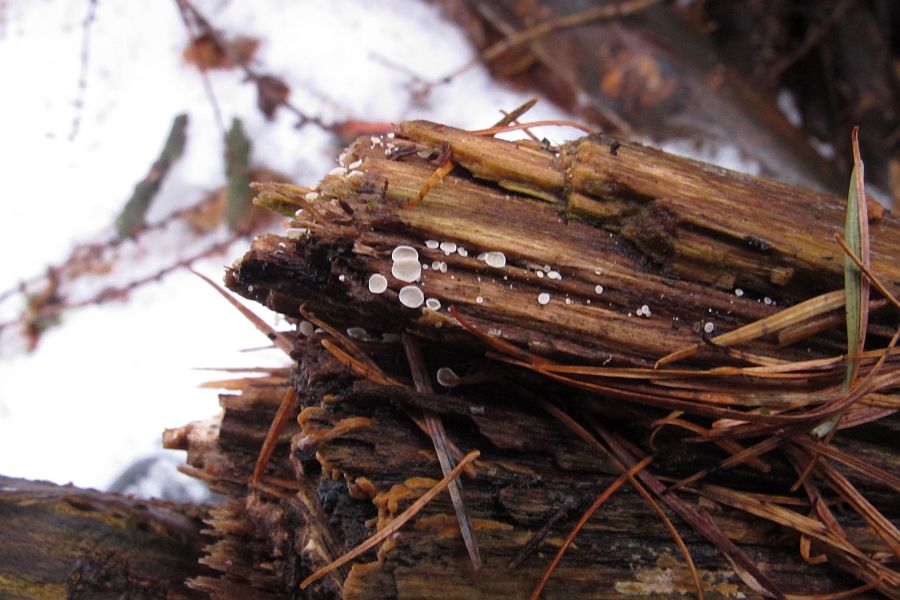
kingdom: Fungi
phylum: Ascomycota
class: Leotiomycetes
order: Helotiales
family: Lachnaceae
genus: Lachnum
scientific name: Lachnum impudicum
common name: vinter-frynseskive
